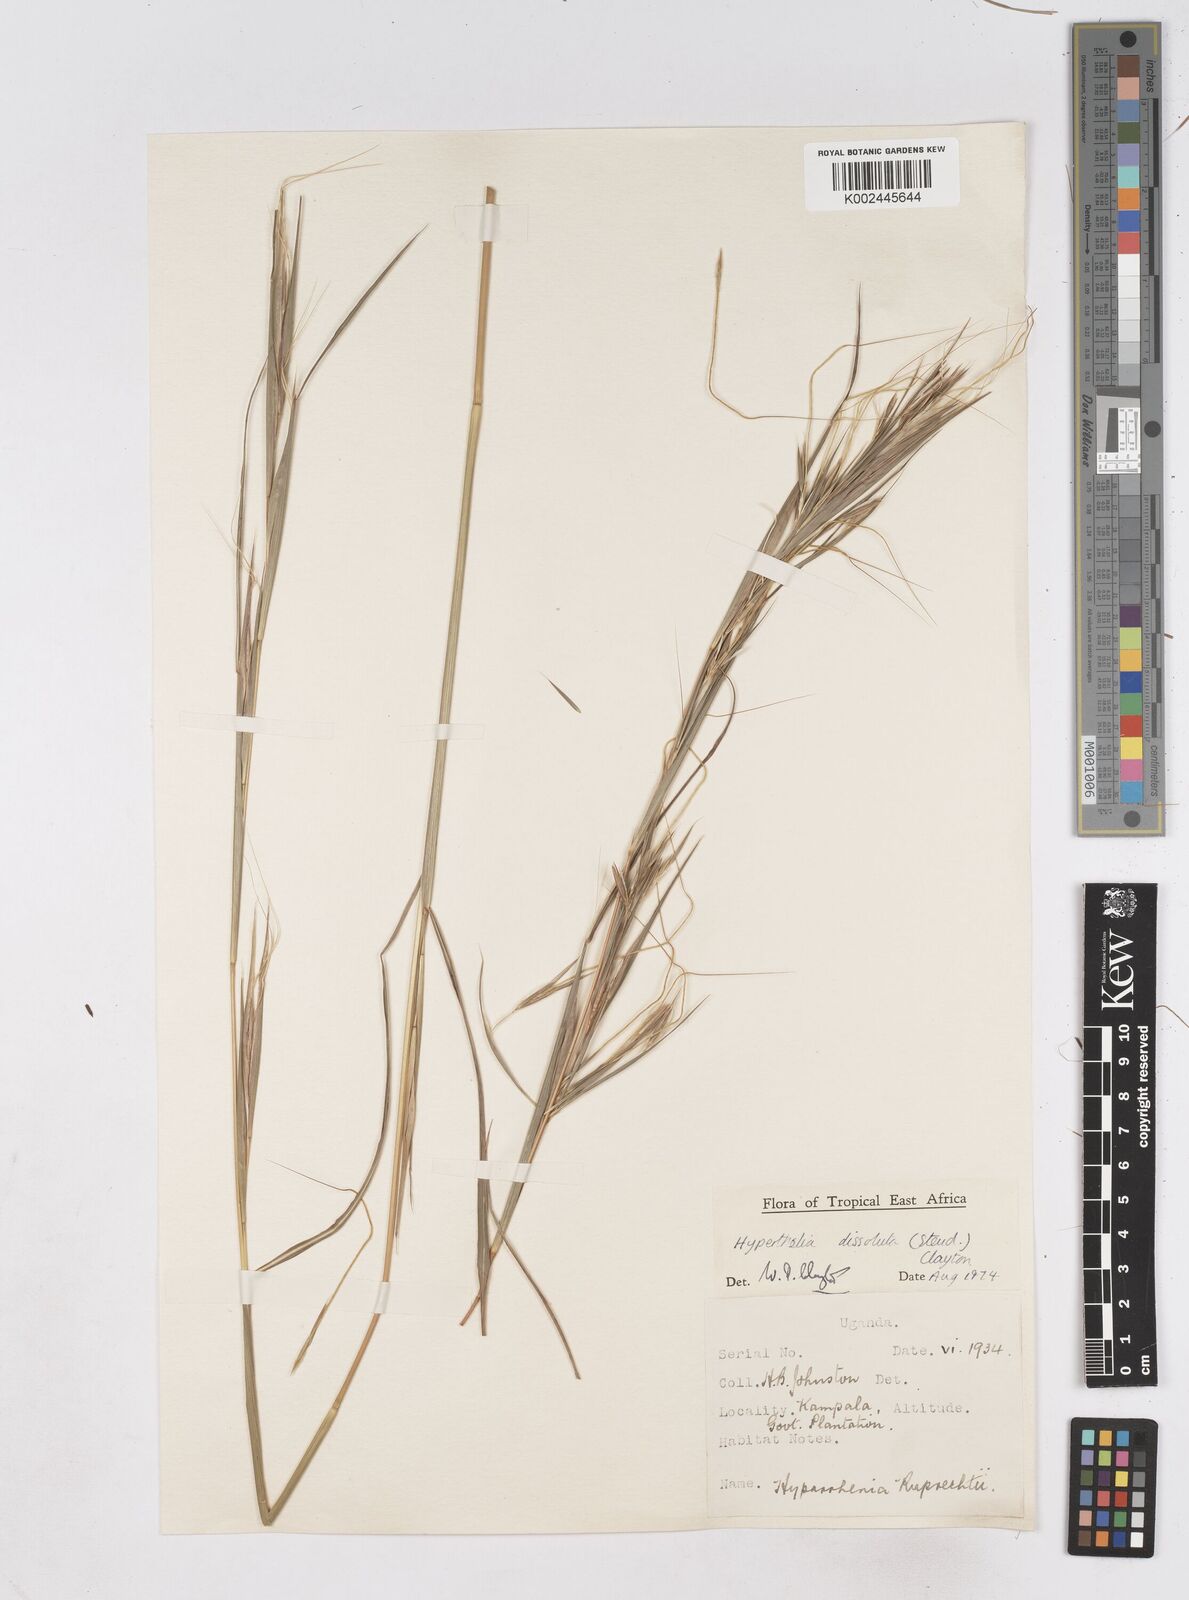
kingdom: Plantae
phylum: Tracheophyta
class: Liliopsida
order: Poales
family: Poaceae
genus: Hyperthelia
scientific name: Hyperthelia dissoluta
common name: Yellow thatching grass
